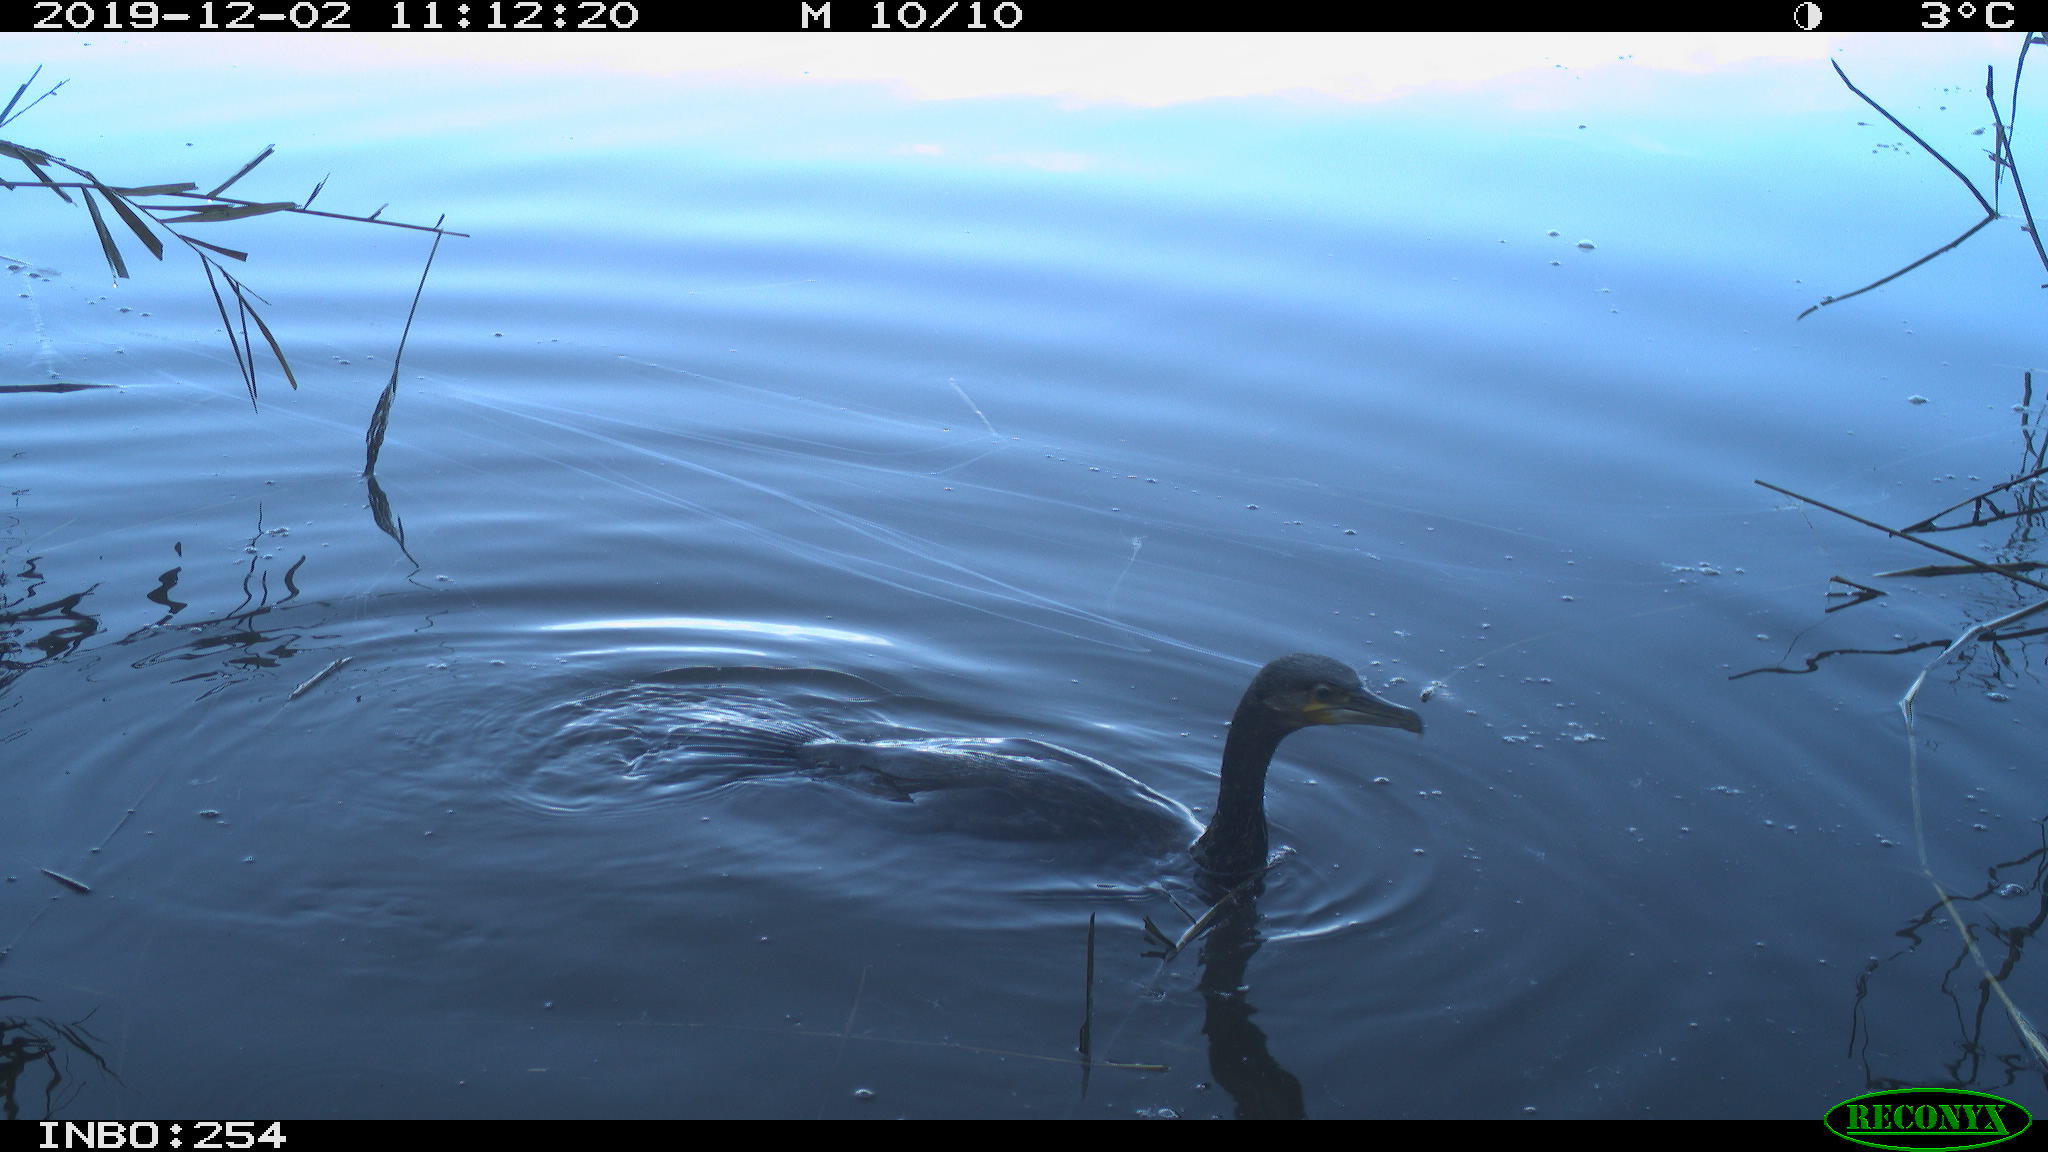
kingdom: Animalia
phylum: Chordata
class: Aves
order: Suliformes
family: Phalacrocoracidae
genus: Phalacrocorax
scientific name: Phalacrocorax carbo
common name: Great cormorant
